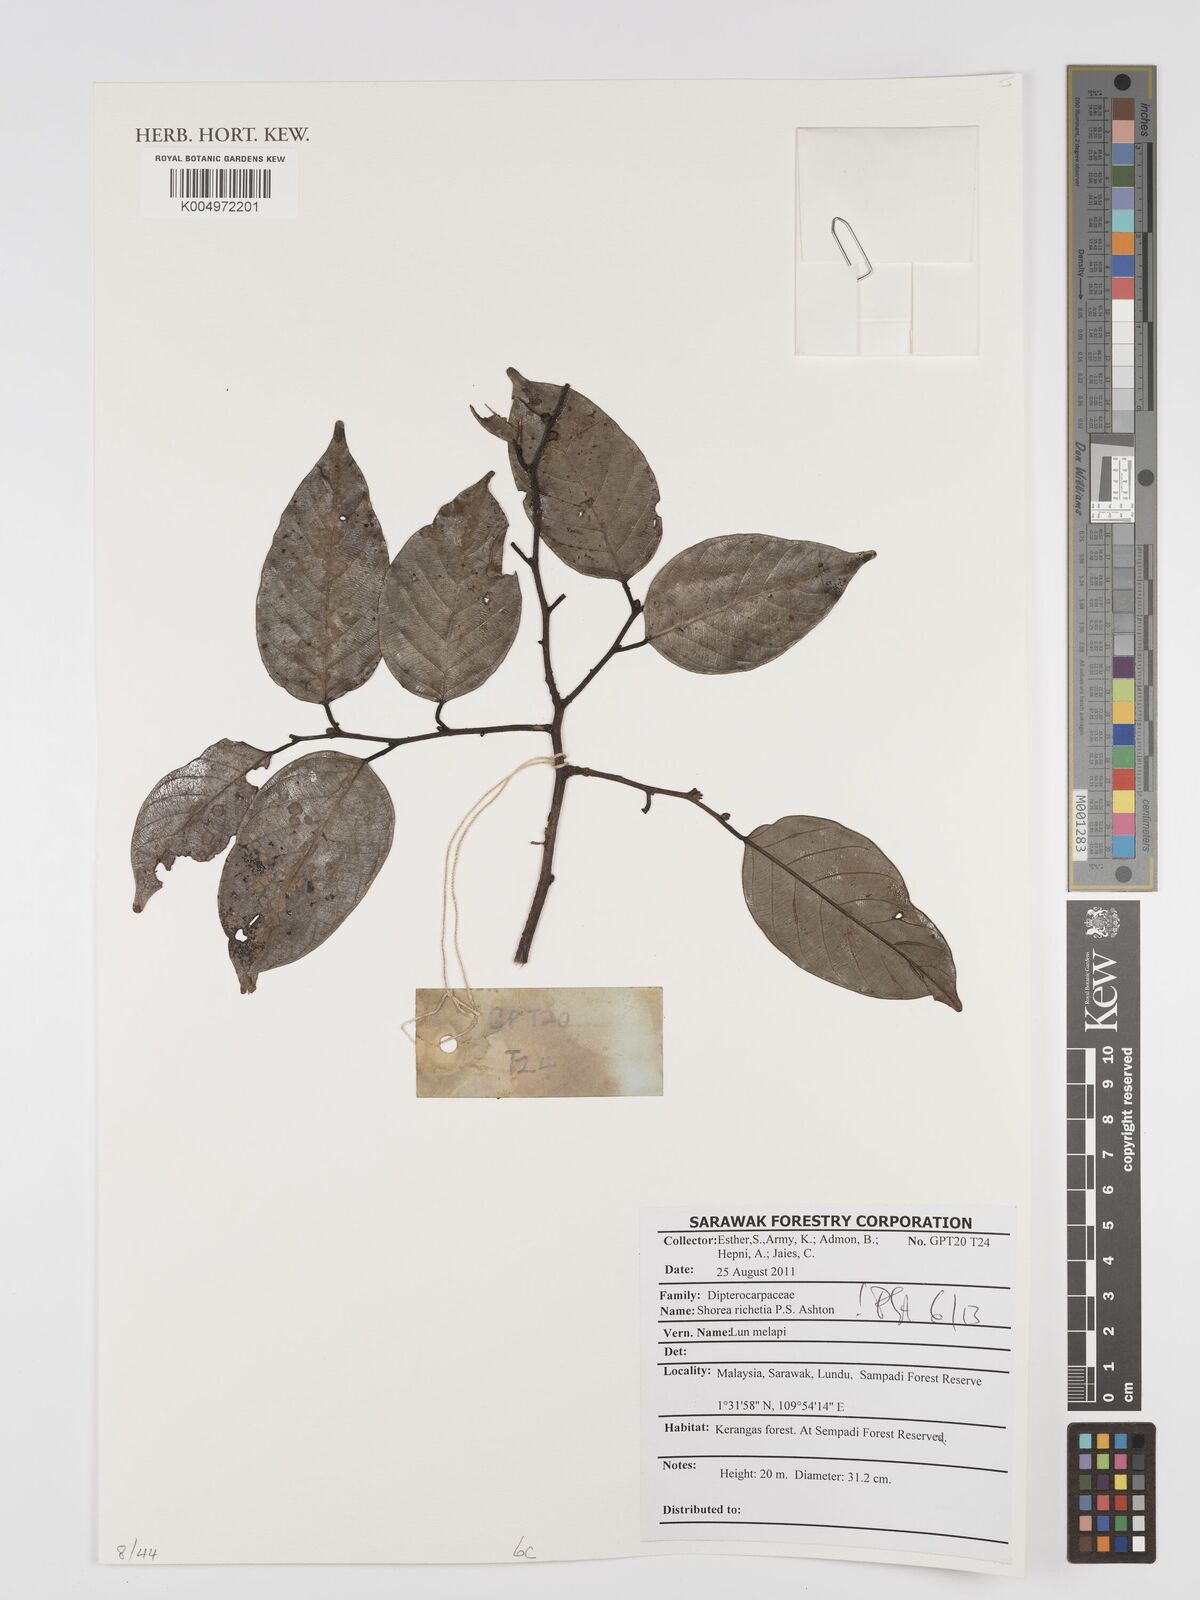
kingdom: Plantae
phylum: Tracheophyta
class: Magnoliopsida
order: Malvales
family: Dipterocarpaceae
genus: Shorea
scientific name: Shorea richetia
